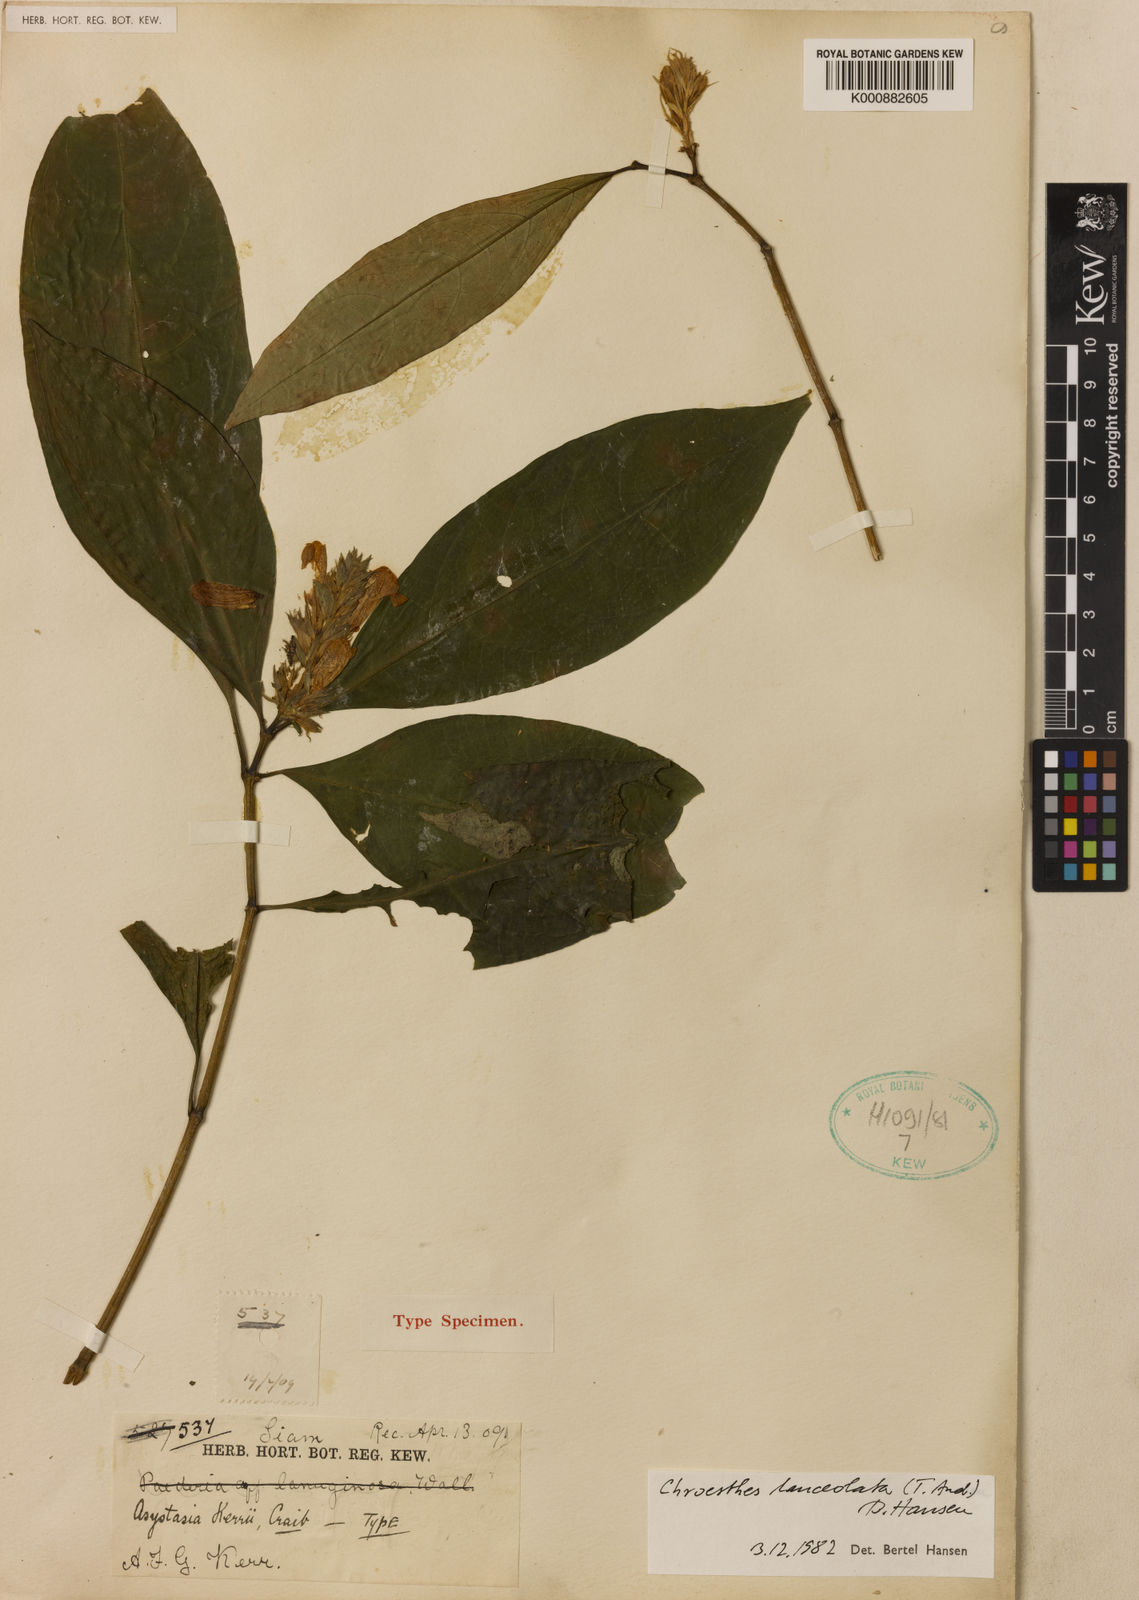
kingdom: Plantae
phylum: Tracheophyta
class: Magnoliopsida
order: Lamiales
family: Acanthaceae
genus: Chroesthes
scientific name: Chroesthes lanceolata
